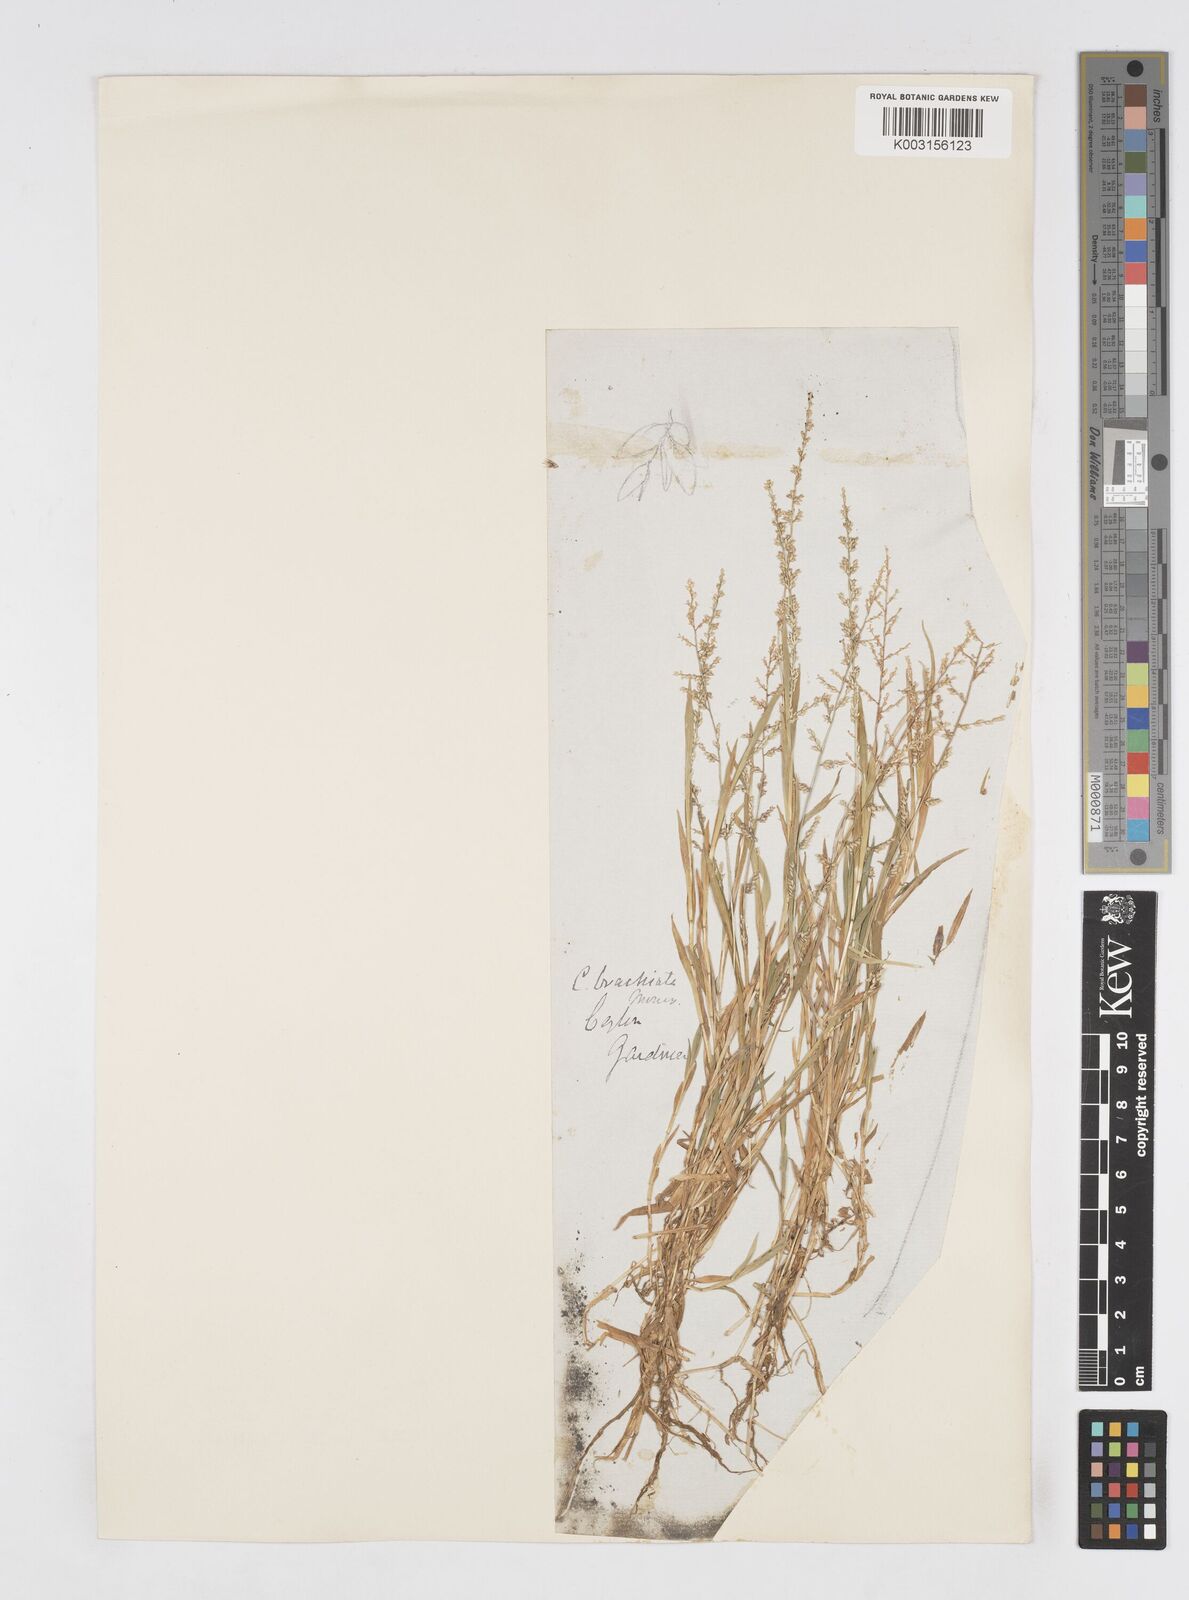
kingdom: Plantae
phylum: Tracheophyta
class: Liliopsida
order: Poales
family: Poaceae
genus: Coelachne
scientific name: Coelachne simpliciuscula
